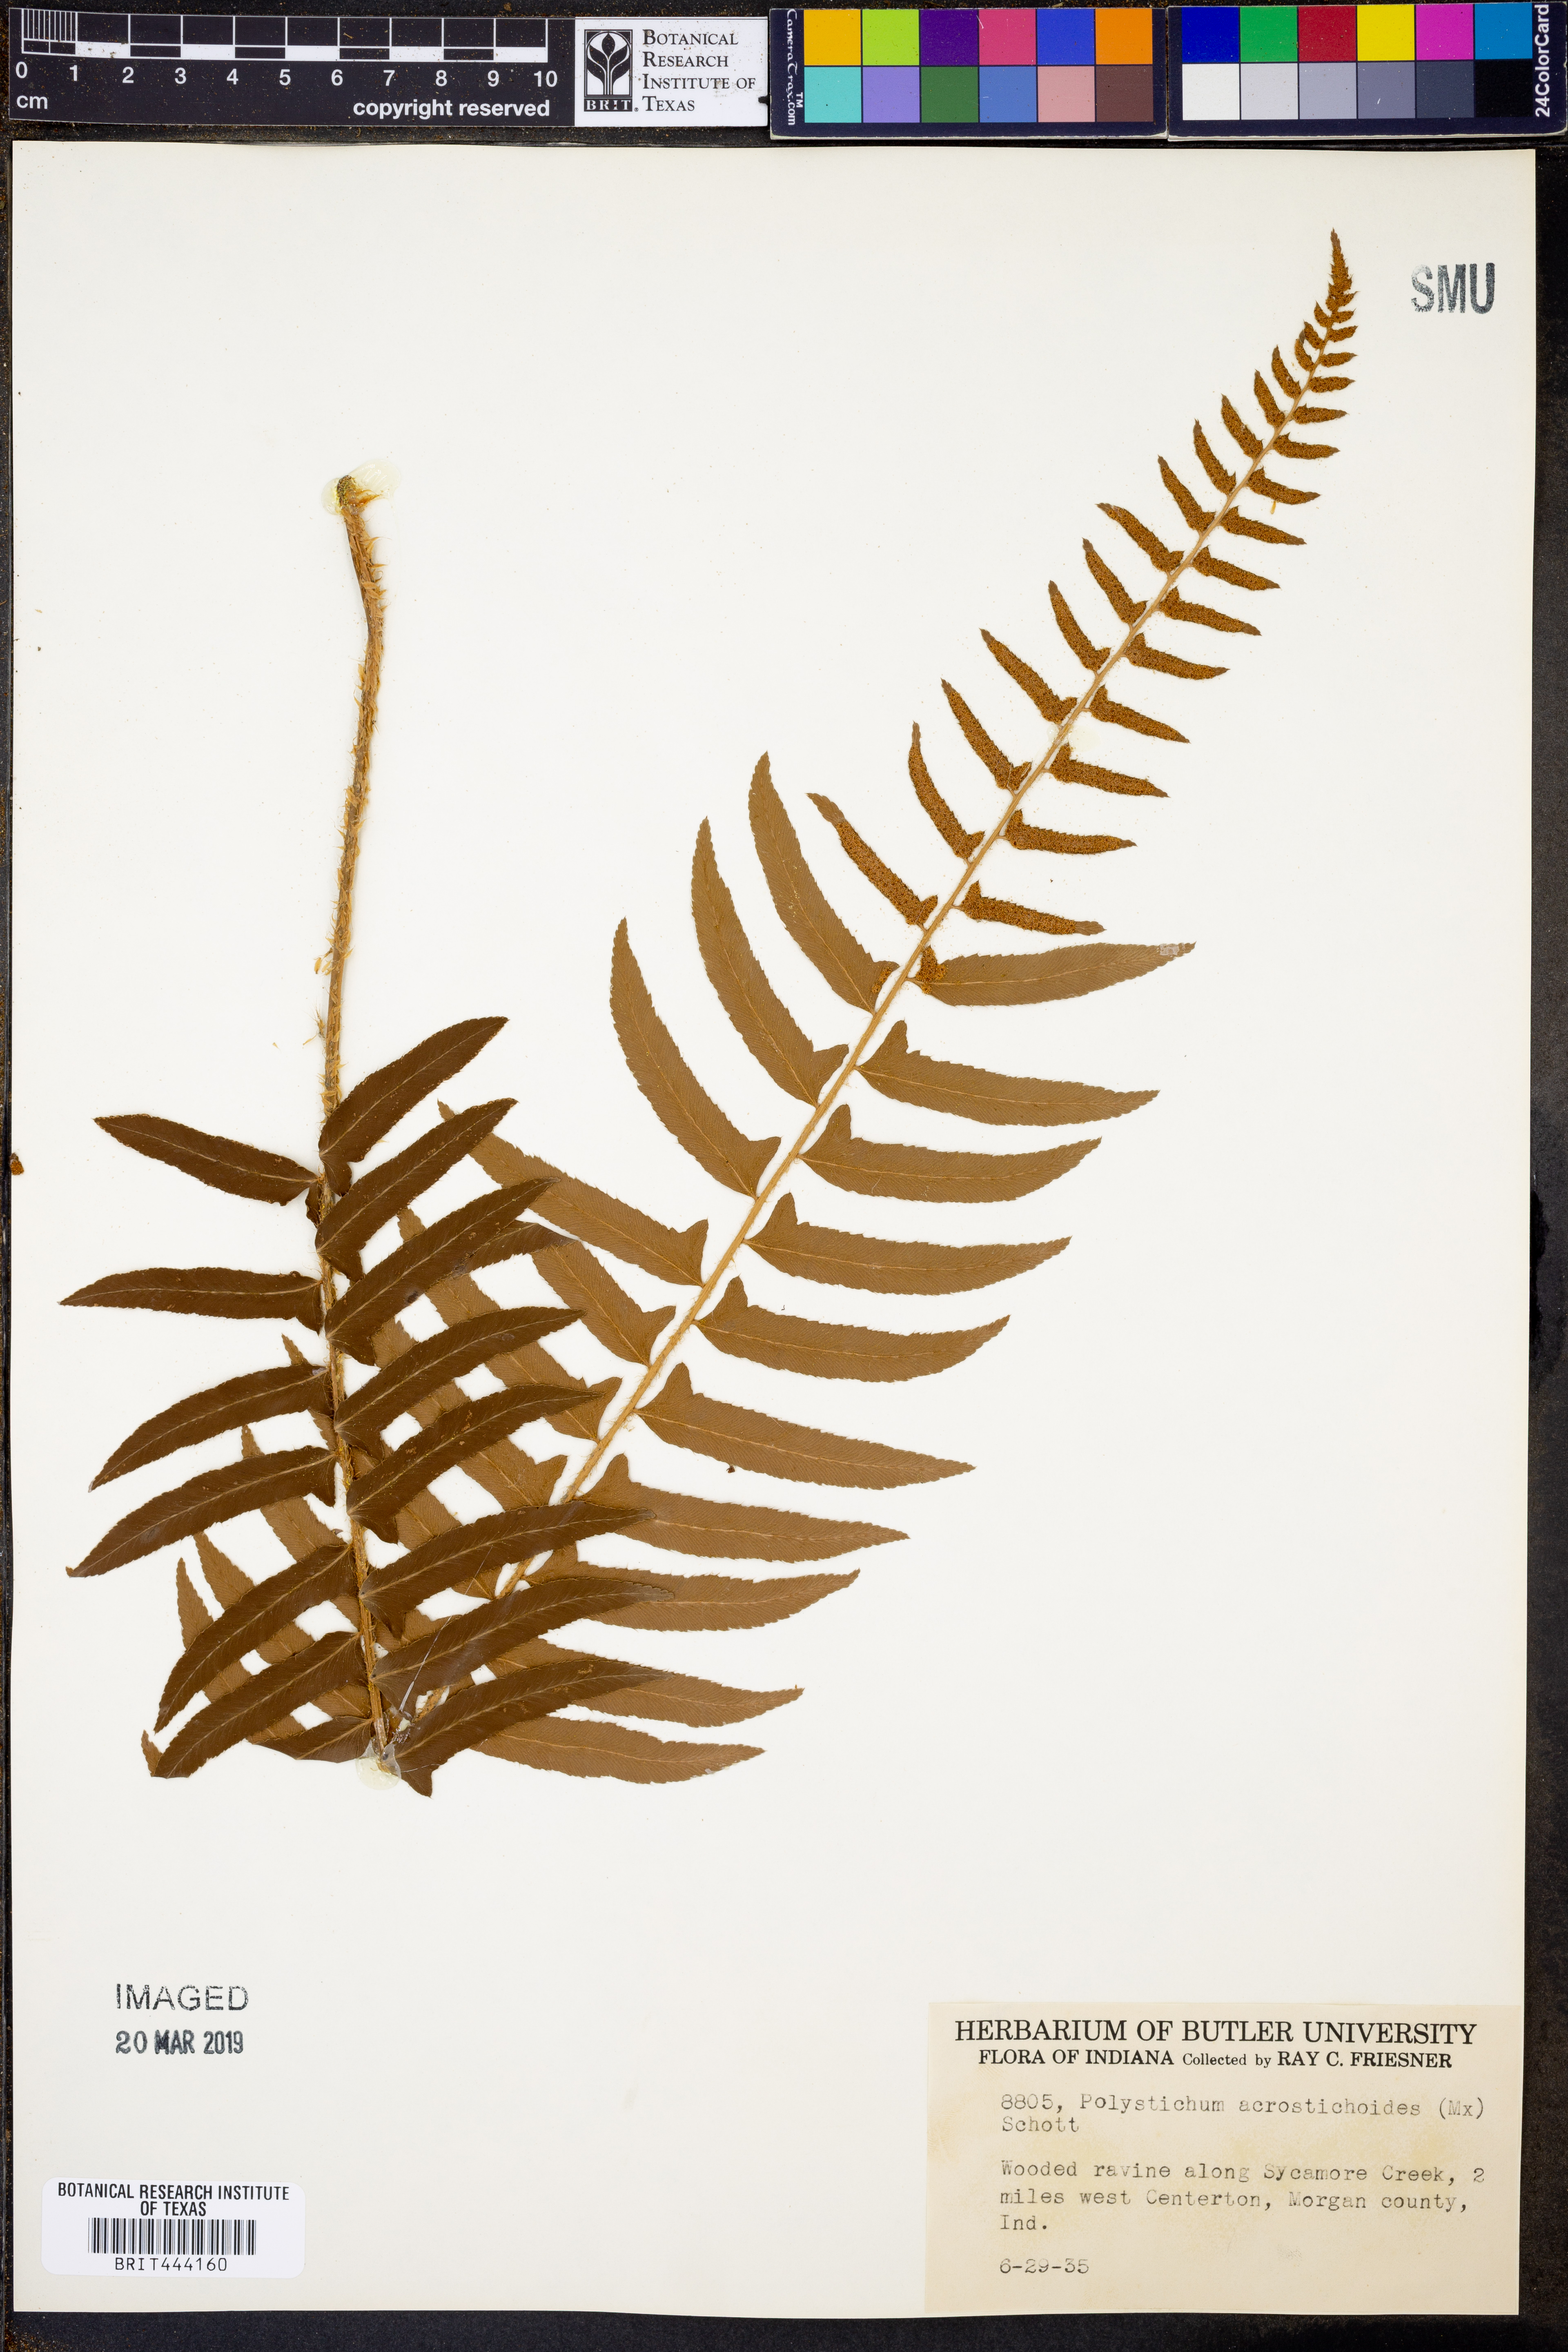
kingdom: Plantae
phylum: Tracheophyta
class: Polypodiopsida
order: Polypodiales
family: Dryopteridaceae
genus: Polystichum
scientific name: Polystichum acrostichoides
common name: Christmas fern
